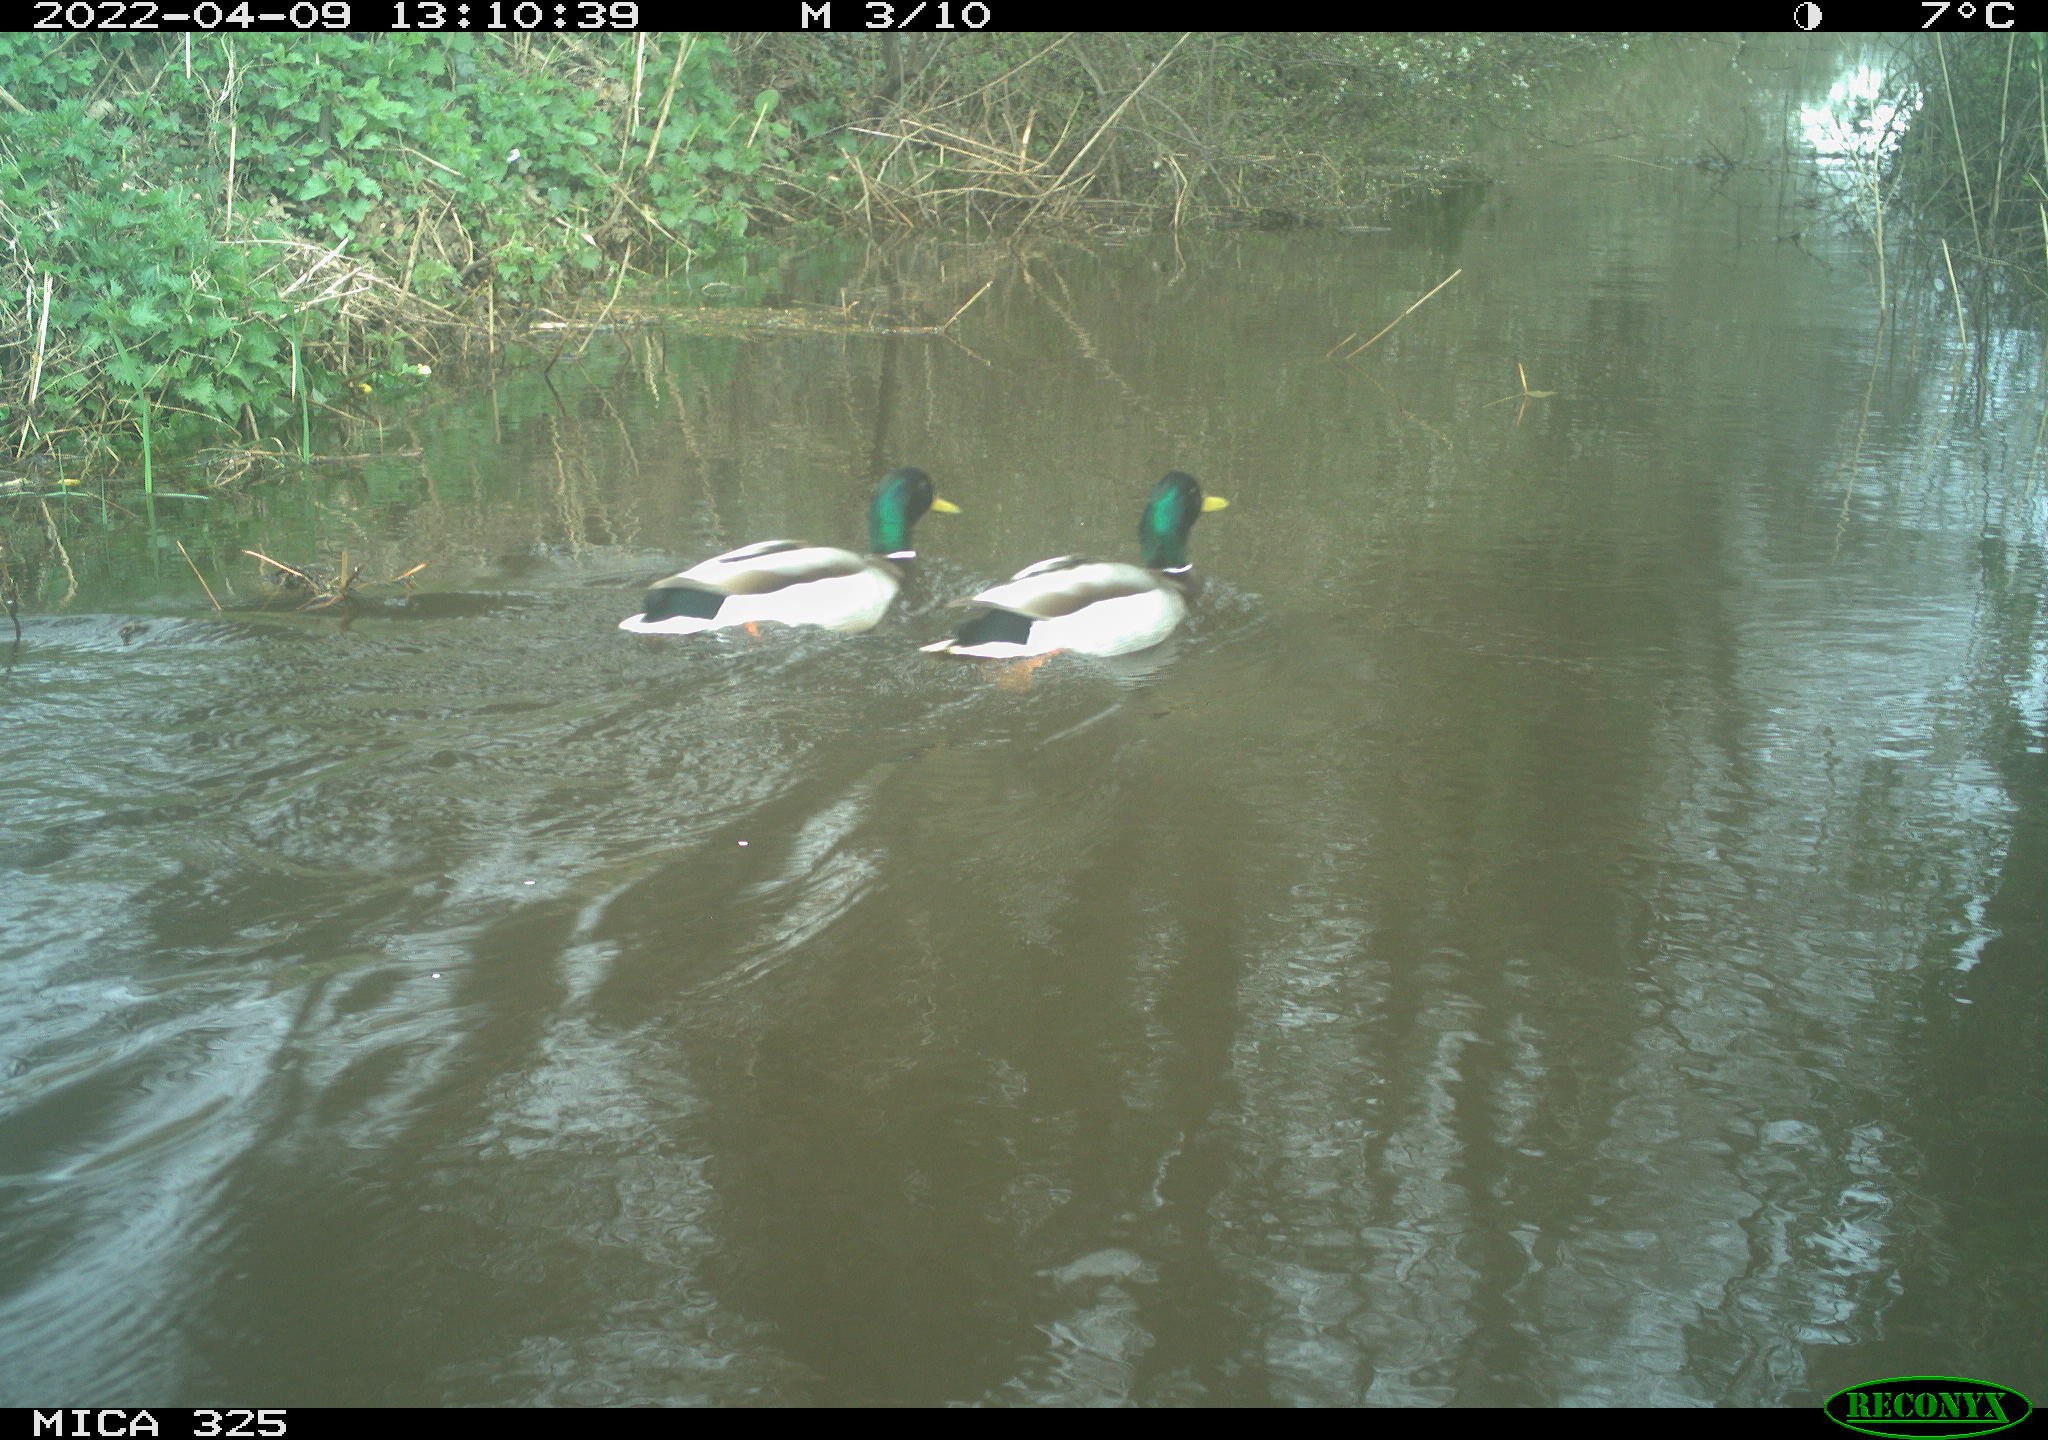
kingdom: Animalia
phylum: Chordata
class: Aves
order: Anseriformes
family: Anatidae
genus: Anas
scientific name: Anas platyrhynchos
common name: Mallard
